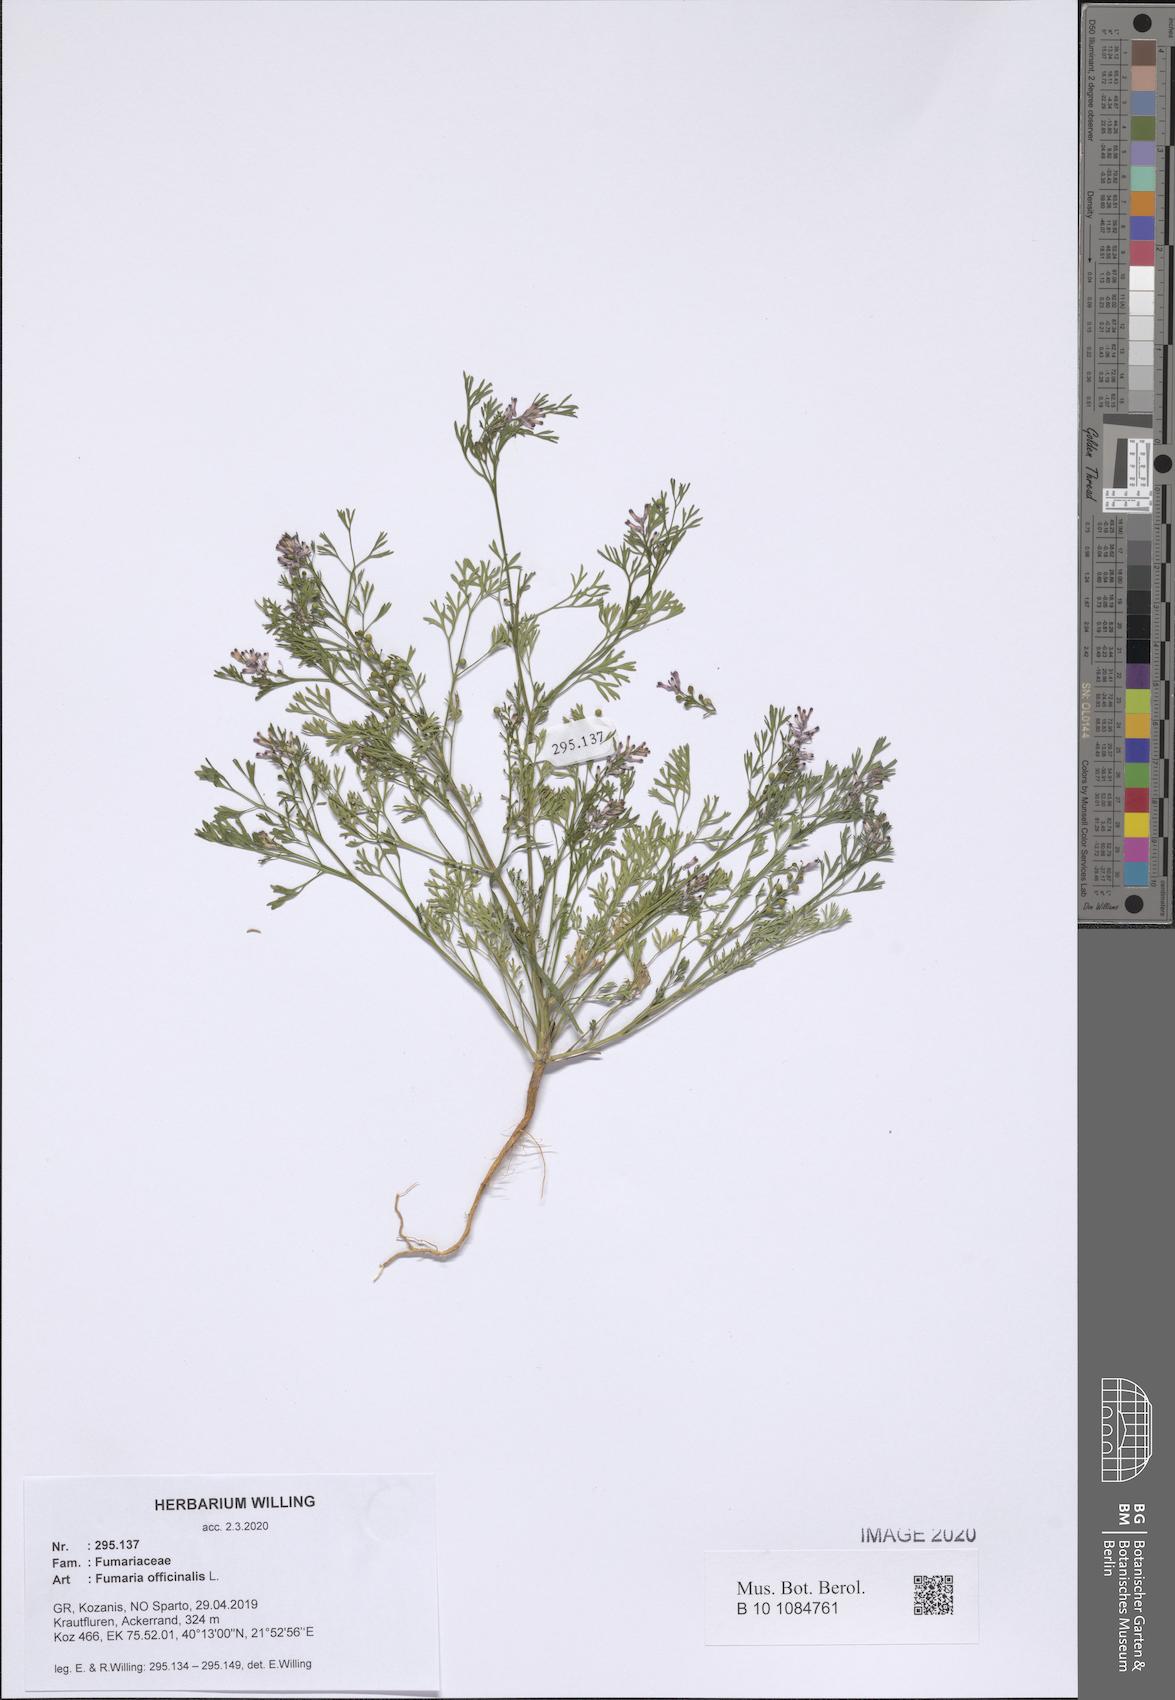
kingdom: Plantae
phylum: Tracheophyta
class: Magnoliopsida
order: Ranunculales
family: Papaveraceae
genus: Fumaria
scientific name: Fumaria officinalis
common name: Common fumitory
